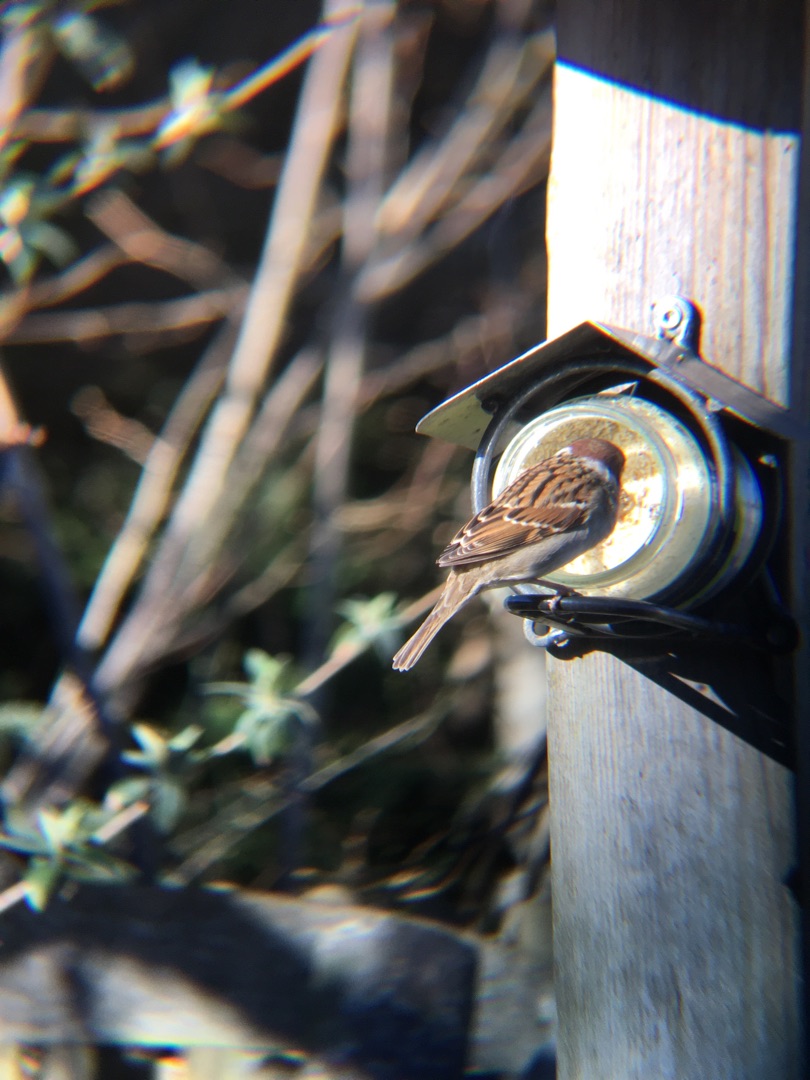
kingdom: Animalia
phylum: Chordata
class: Aves
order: Passeriformes
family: Passeridae
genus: Passer
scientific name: Passer montanus
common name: Skovspurv
